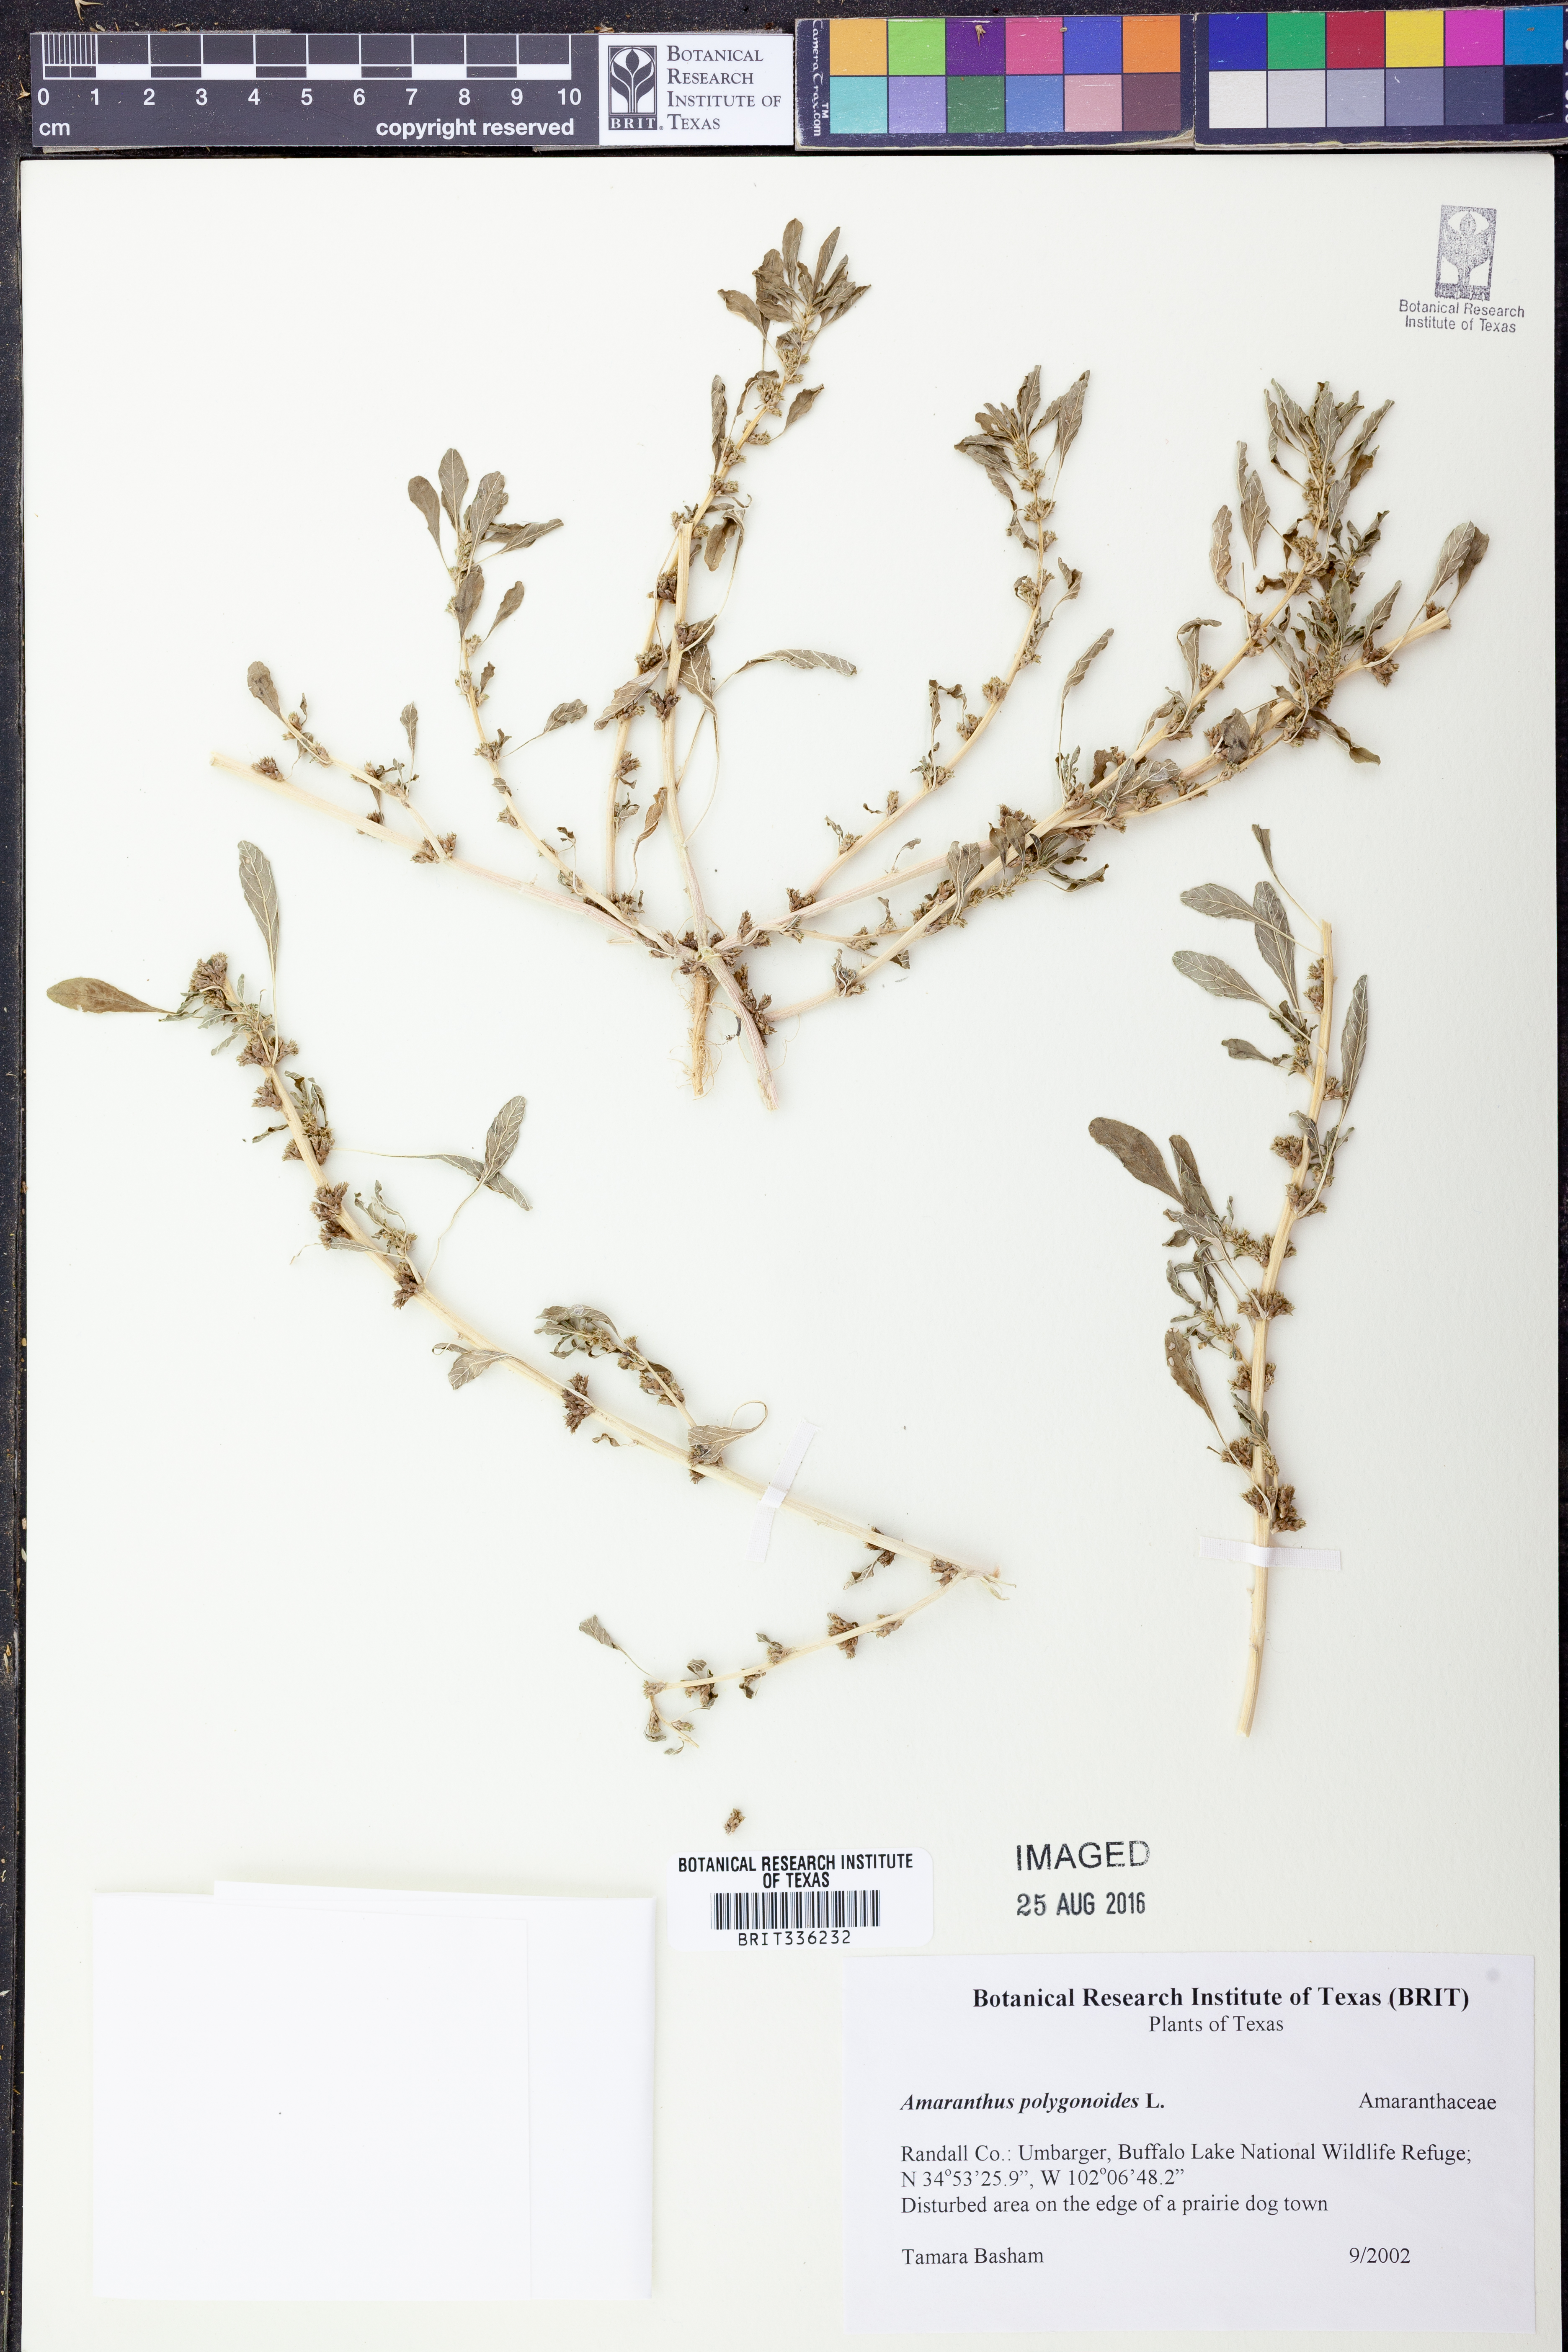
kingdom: Plantae
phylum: Tracheophyta
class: Magnoliopsida
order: Caryophyllales
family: Amaranthaceae
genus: Amaranthus
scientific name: Amaranthus polygonoides
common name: Tropical amaranth
